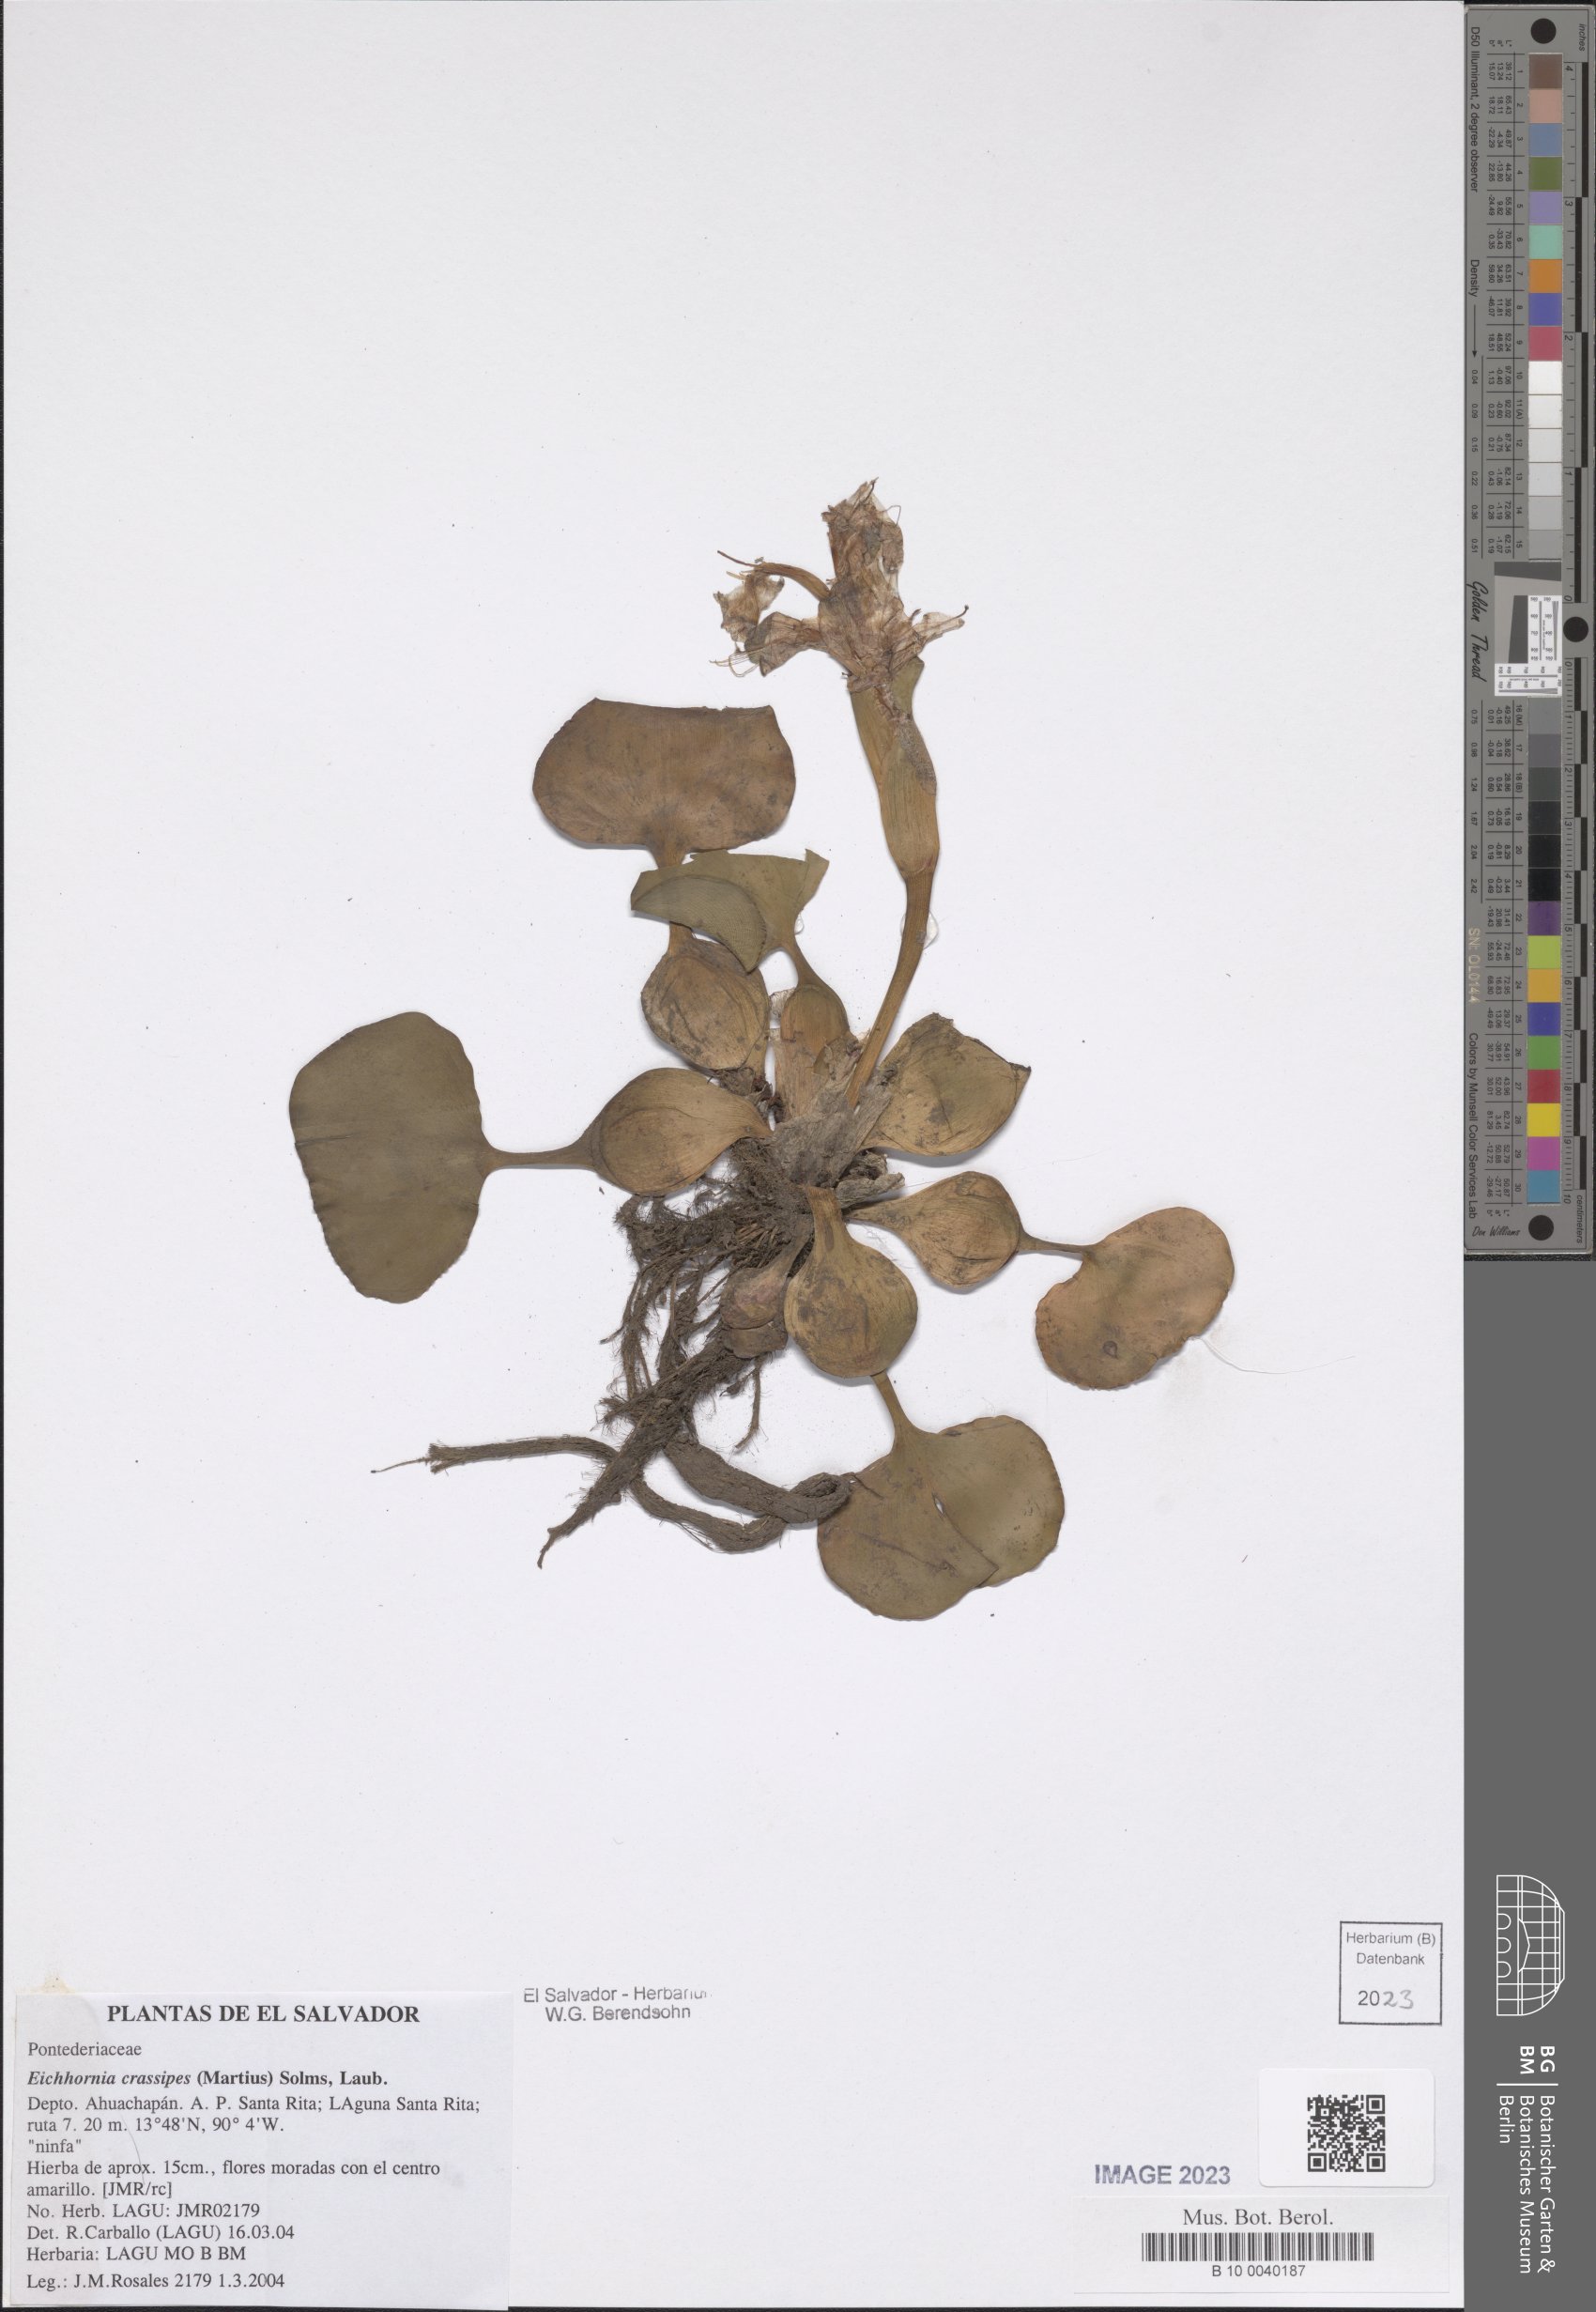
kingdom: Plantae
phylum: Tracheophyta
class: Liliopsida
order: Commelinales
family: Pontederiaceae
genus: Pontederia
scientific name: Pontederia crassipes
